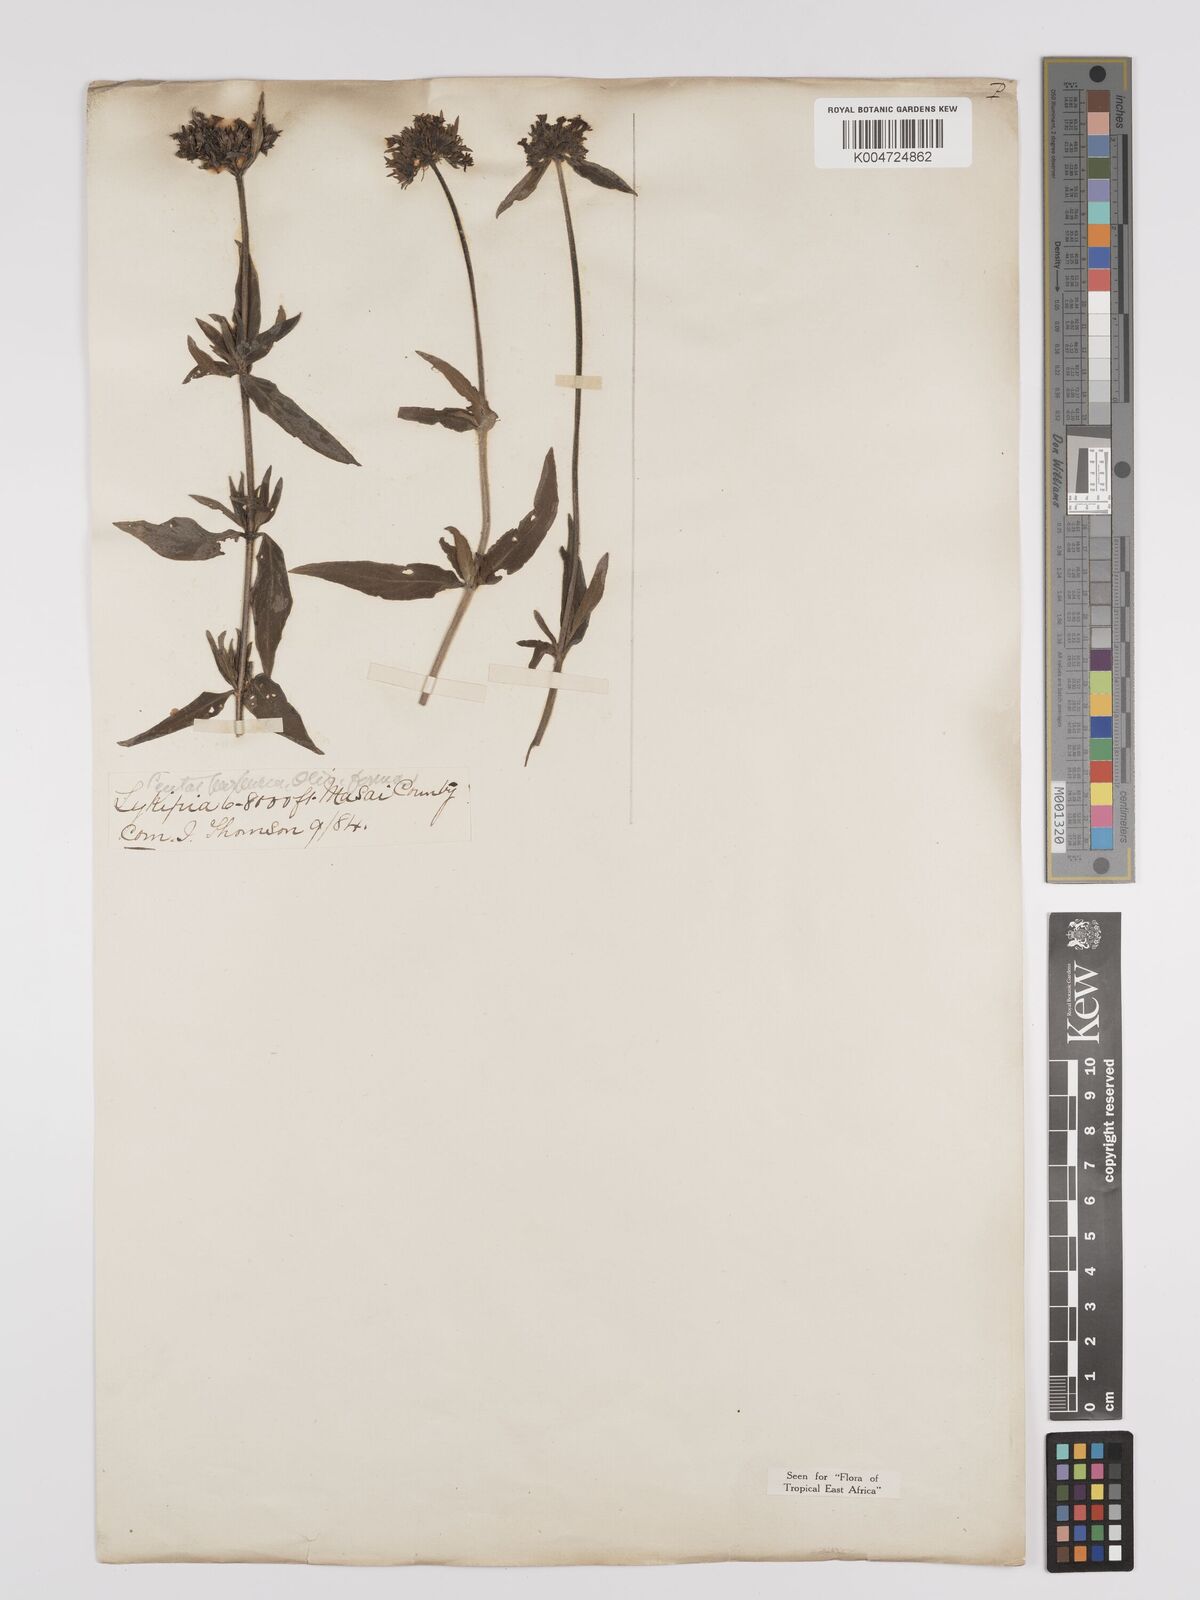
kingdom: Plantae
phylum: Tracheophyta
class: Magnoliopsida
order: Gentianales
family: Rubiaceae
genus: Pentas
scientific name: Pentas zanzibarica
